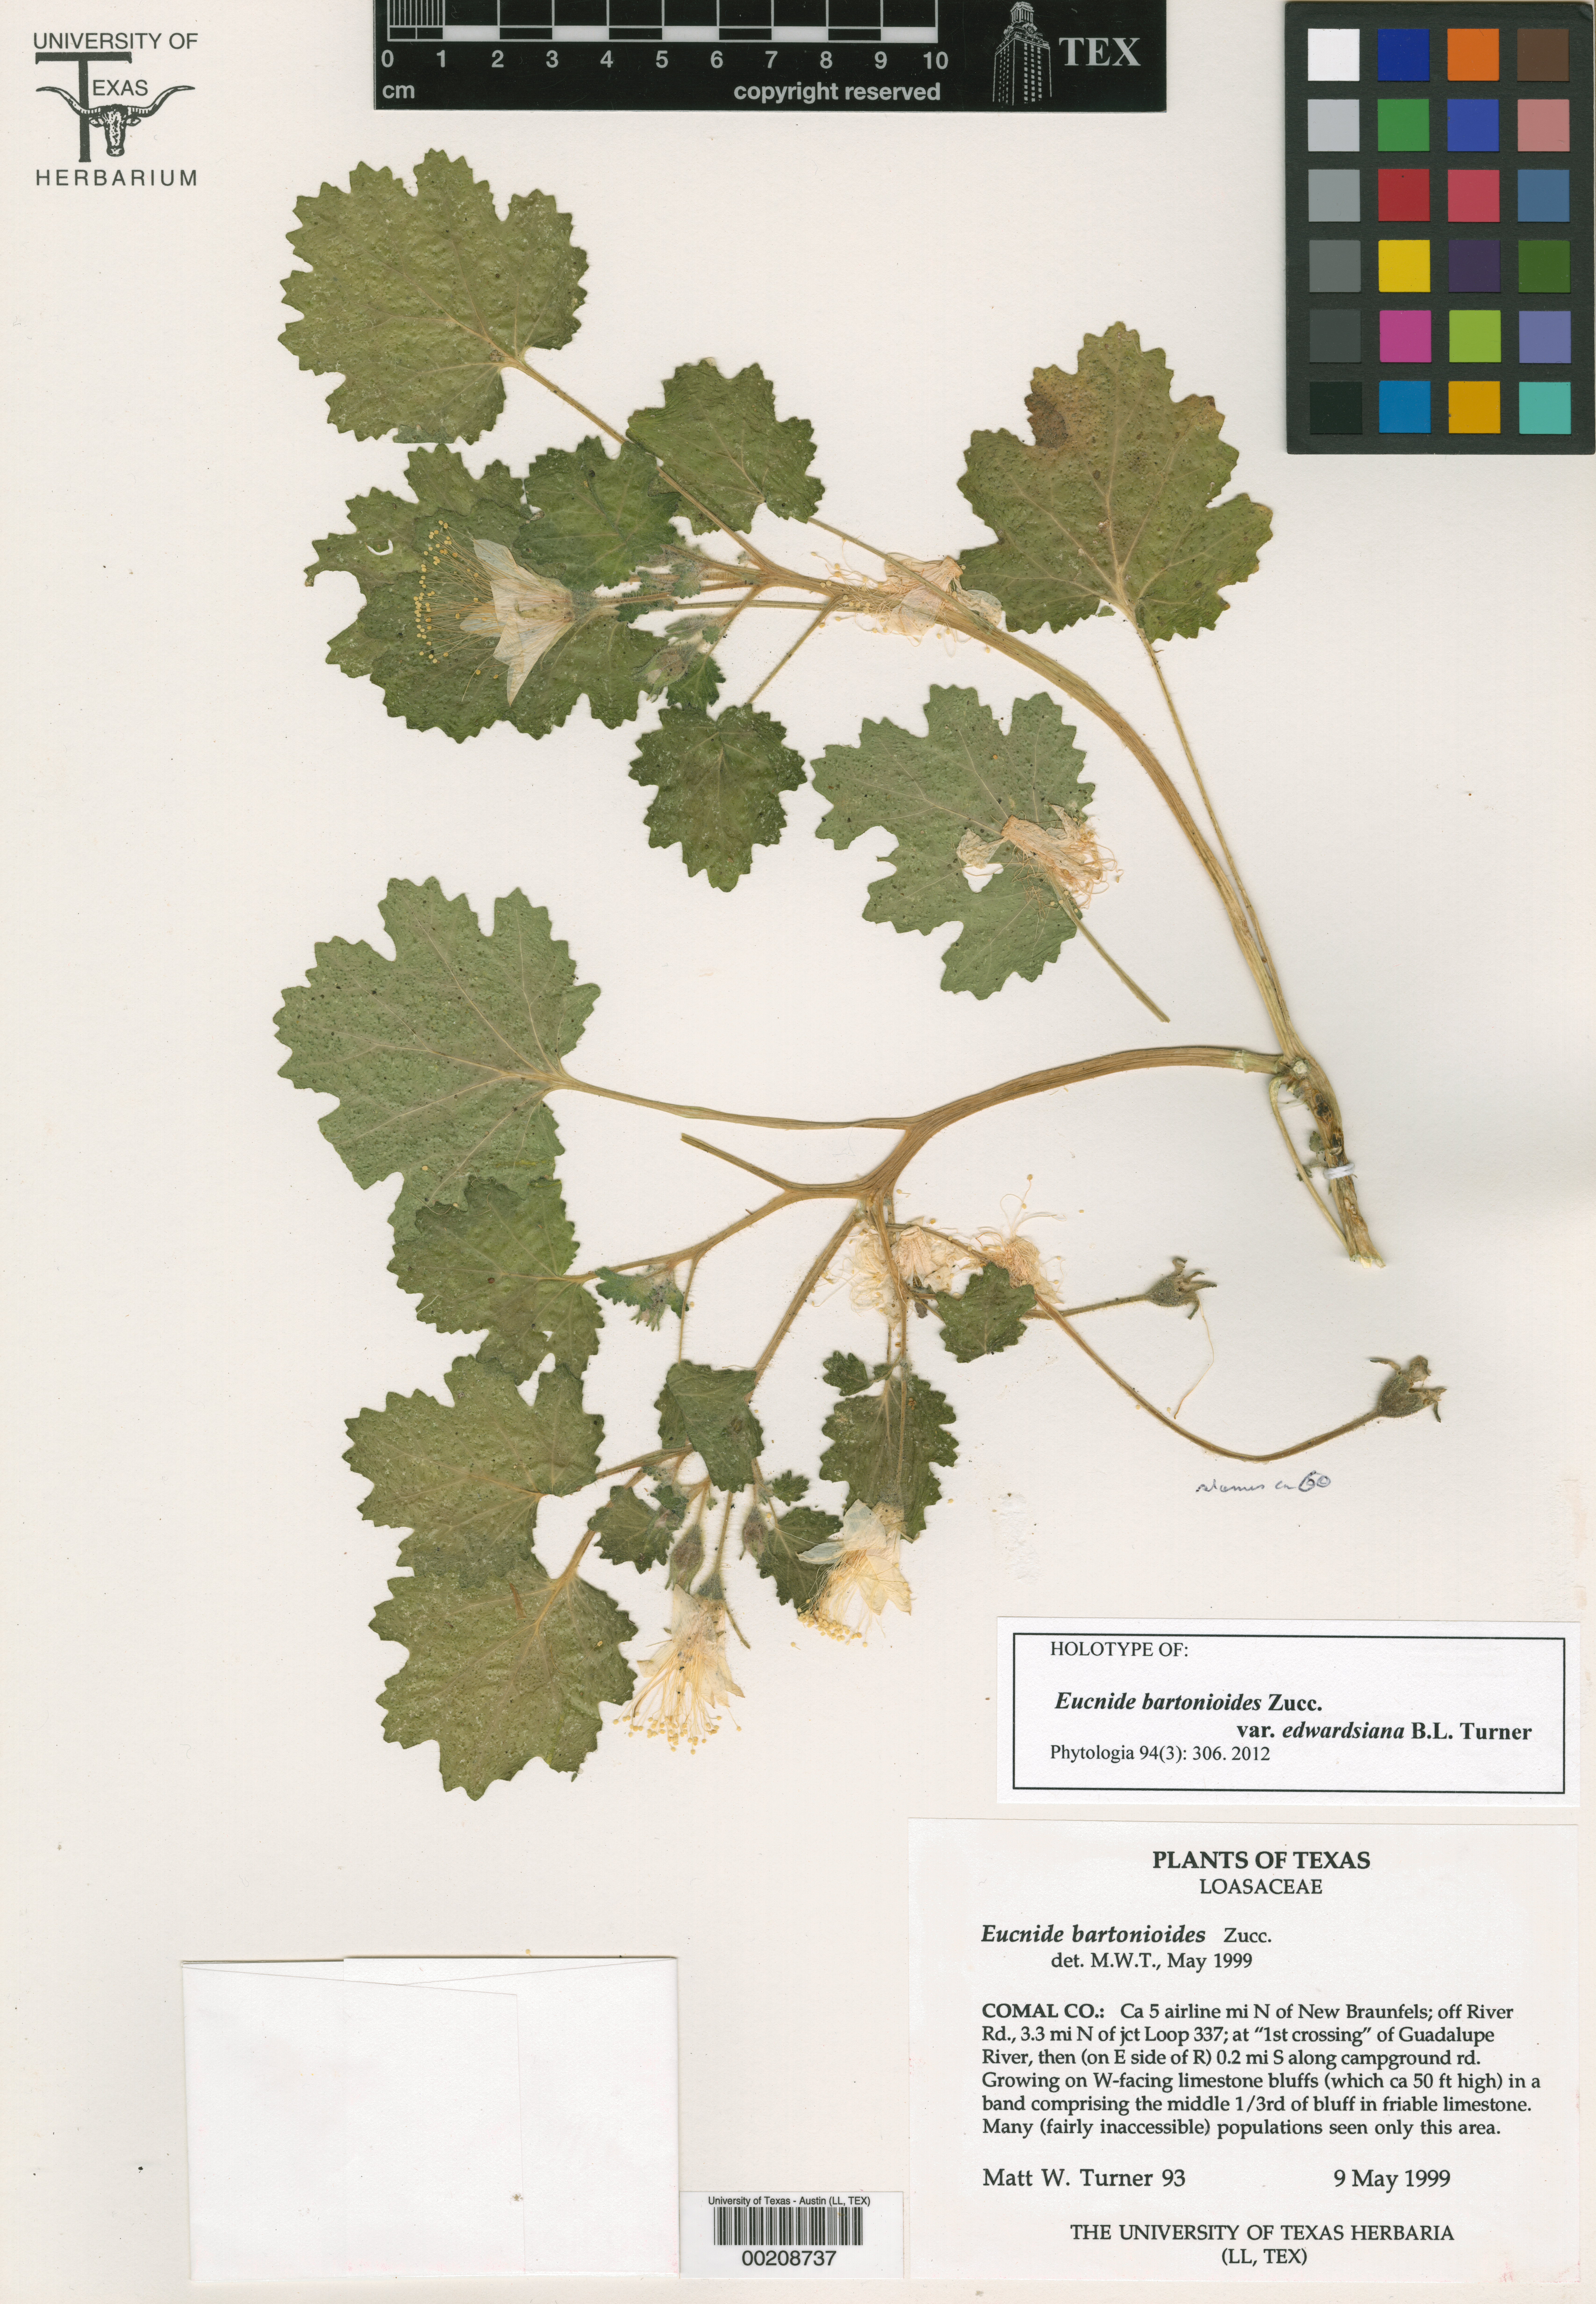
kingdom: Plantae
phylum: Tracheophyta
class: Magnoliopsida
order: Malpighiales
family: Hypericaceae
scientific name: Hypericaceae
